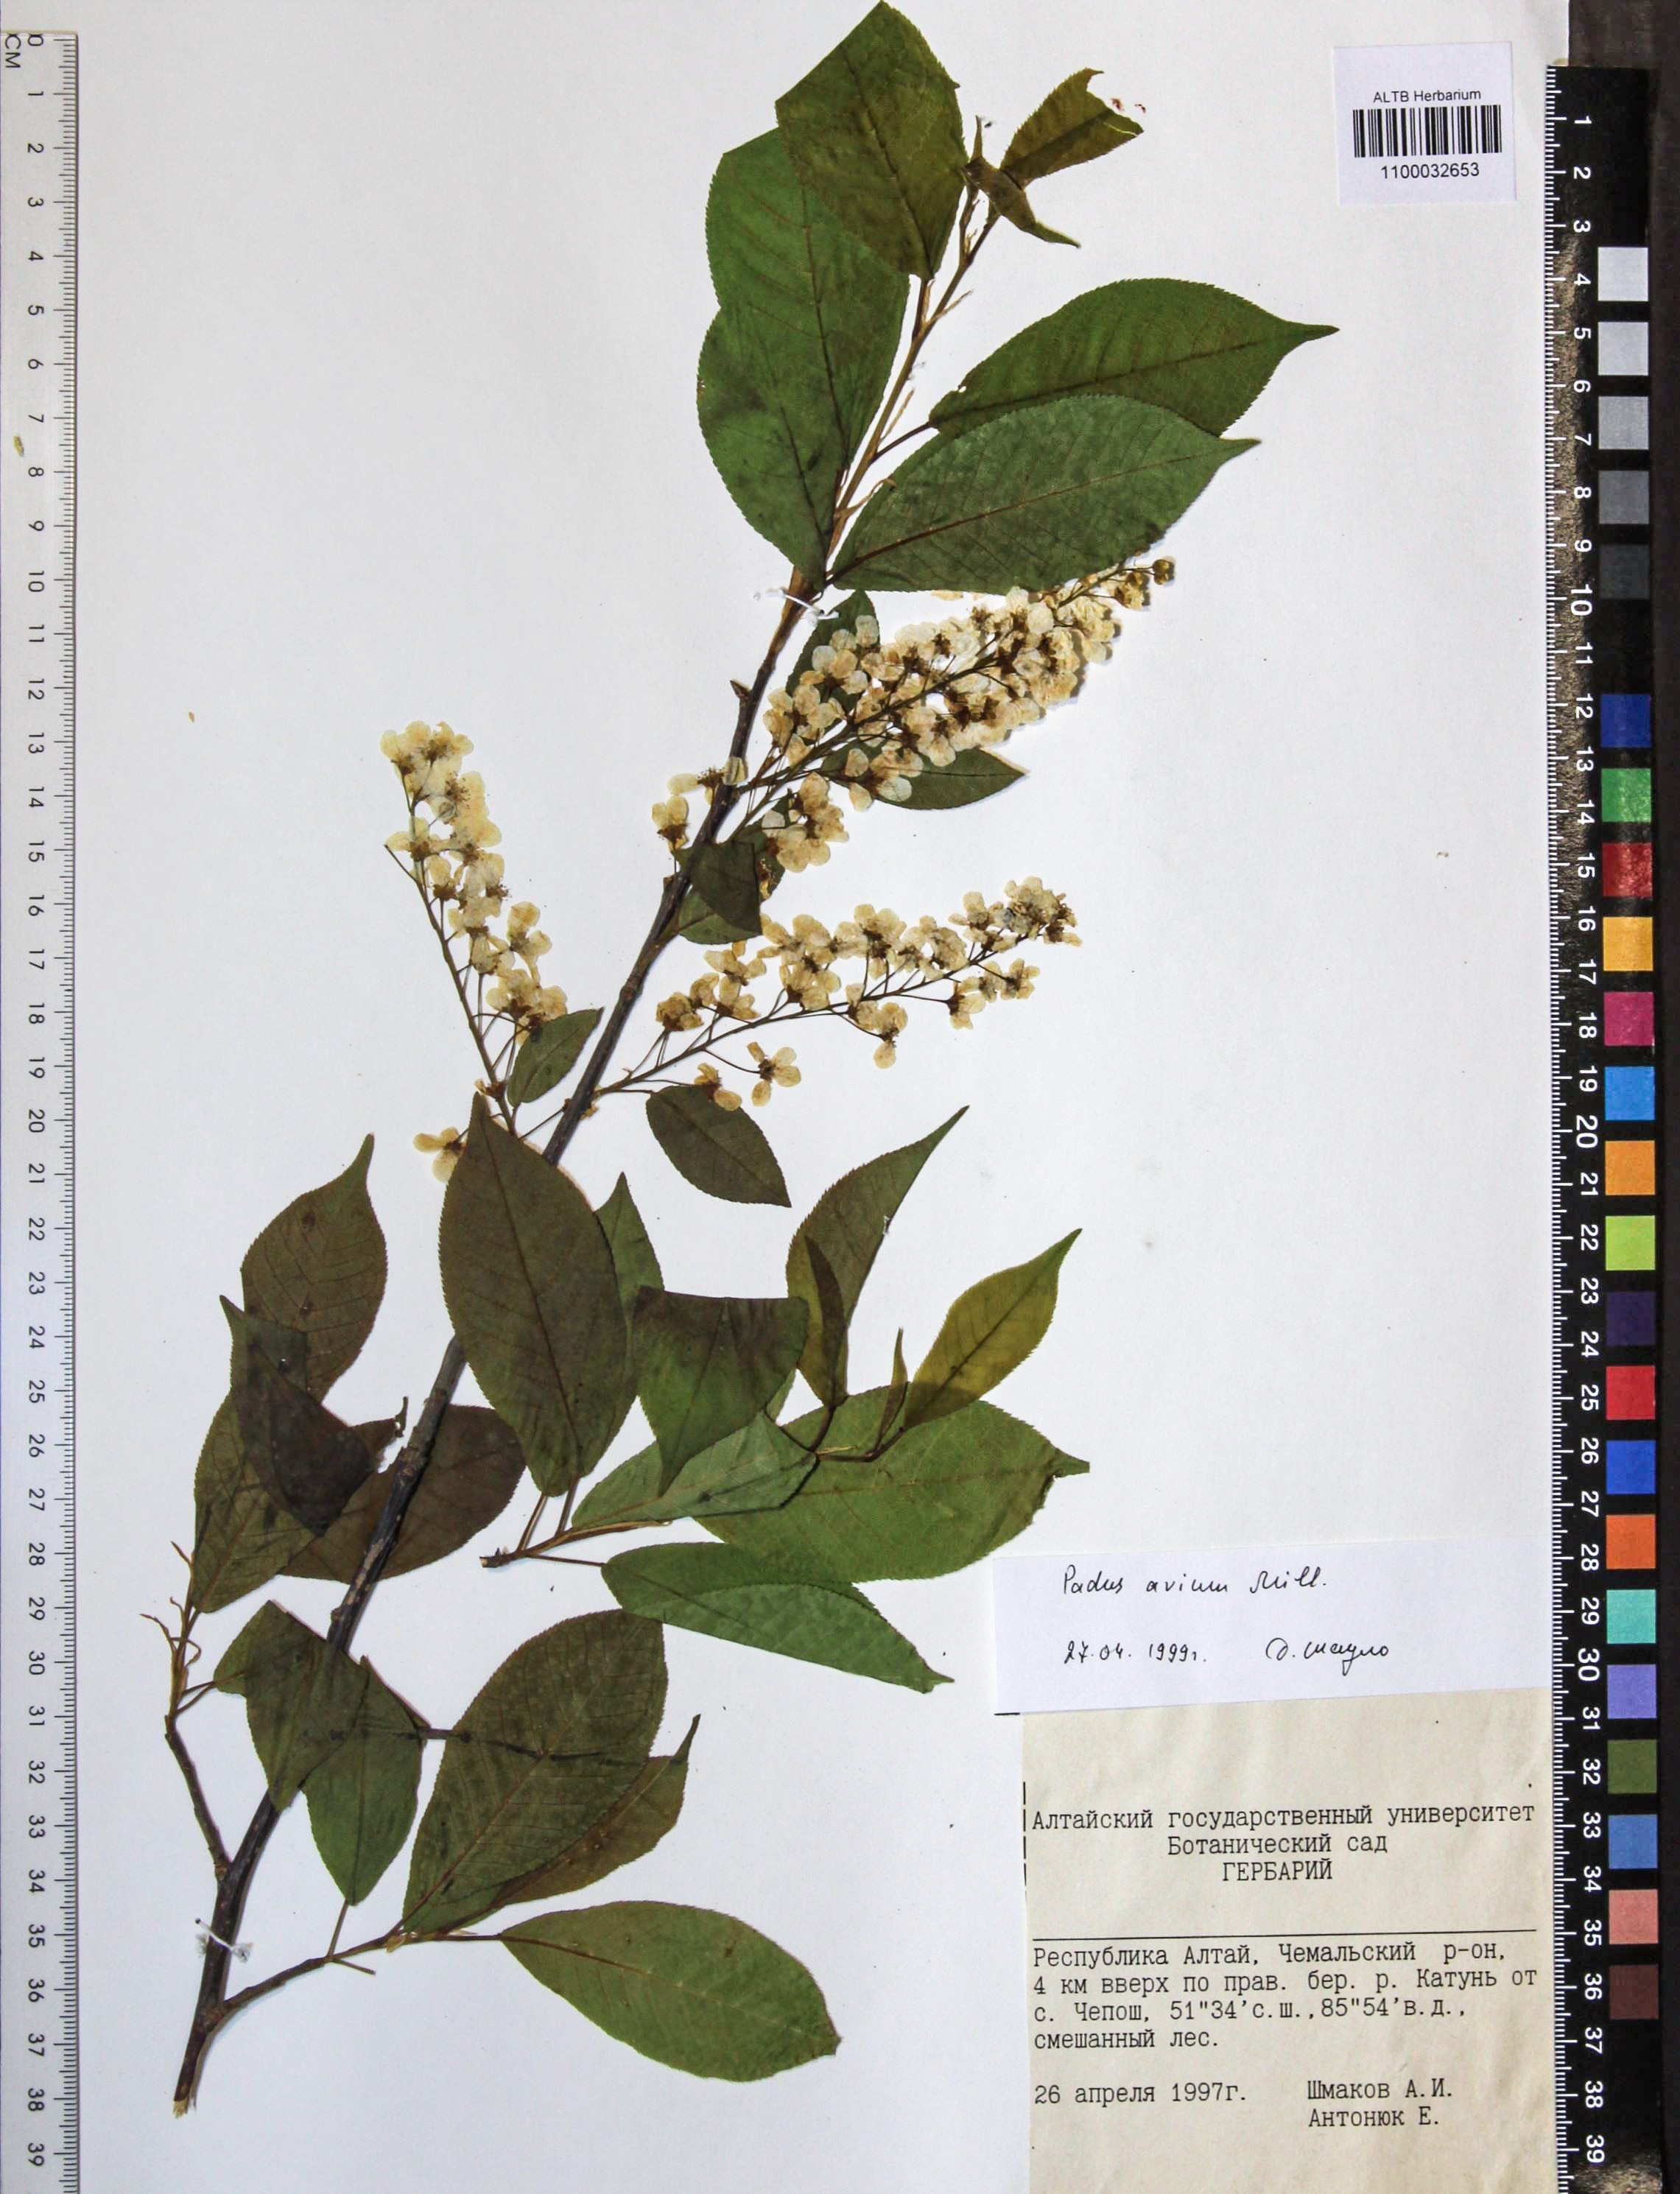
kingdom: Plantae
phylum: Tracheophyta
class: Magnoliopsida
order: Rosales
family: Rosaceae
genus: Prunus
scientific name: Prunus padus
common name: Bird cherry
